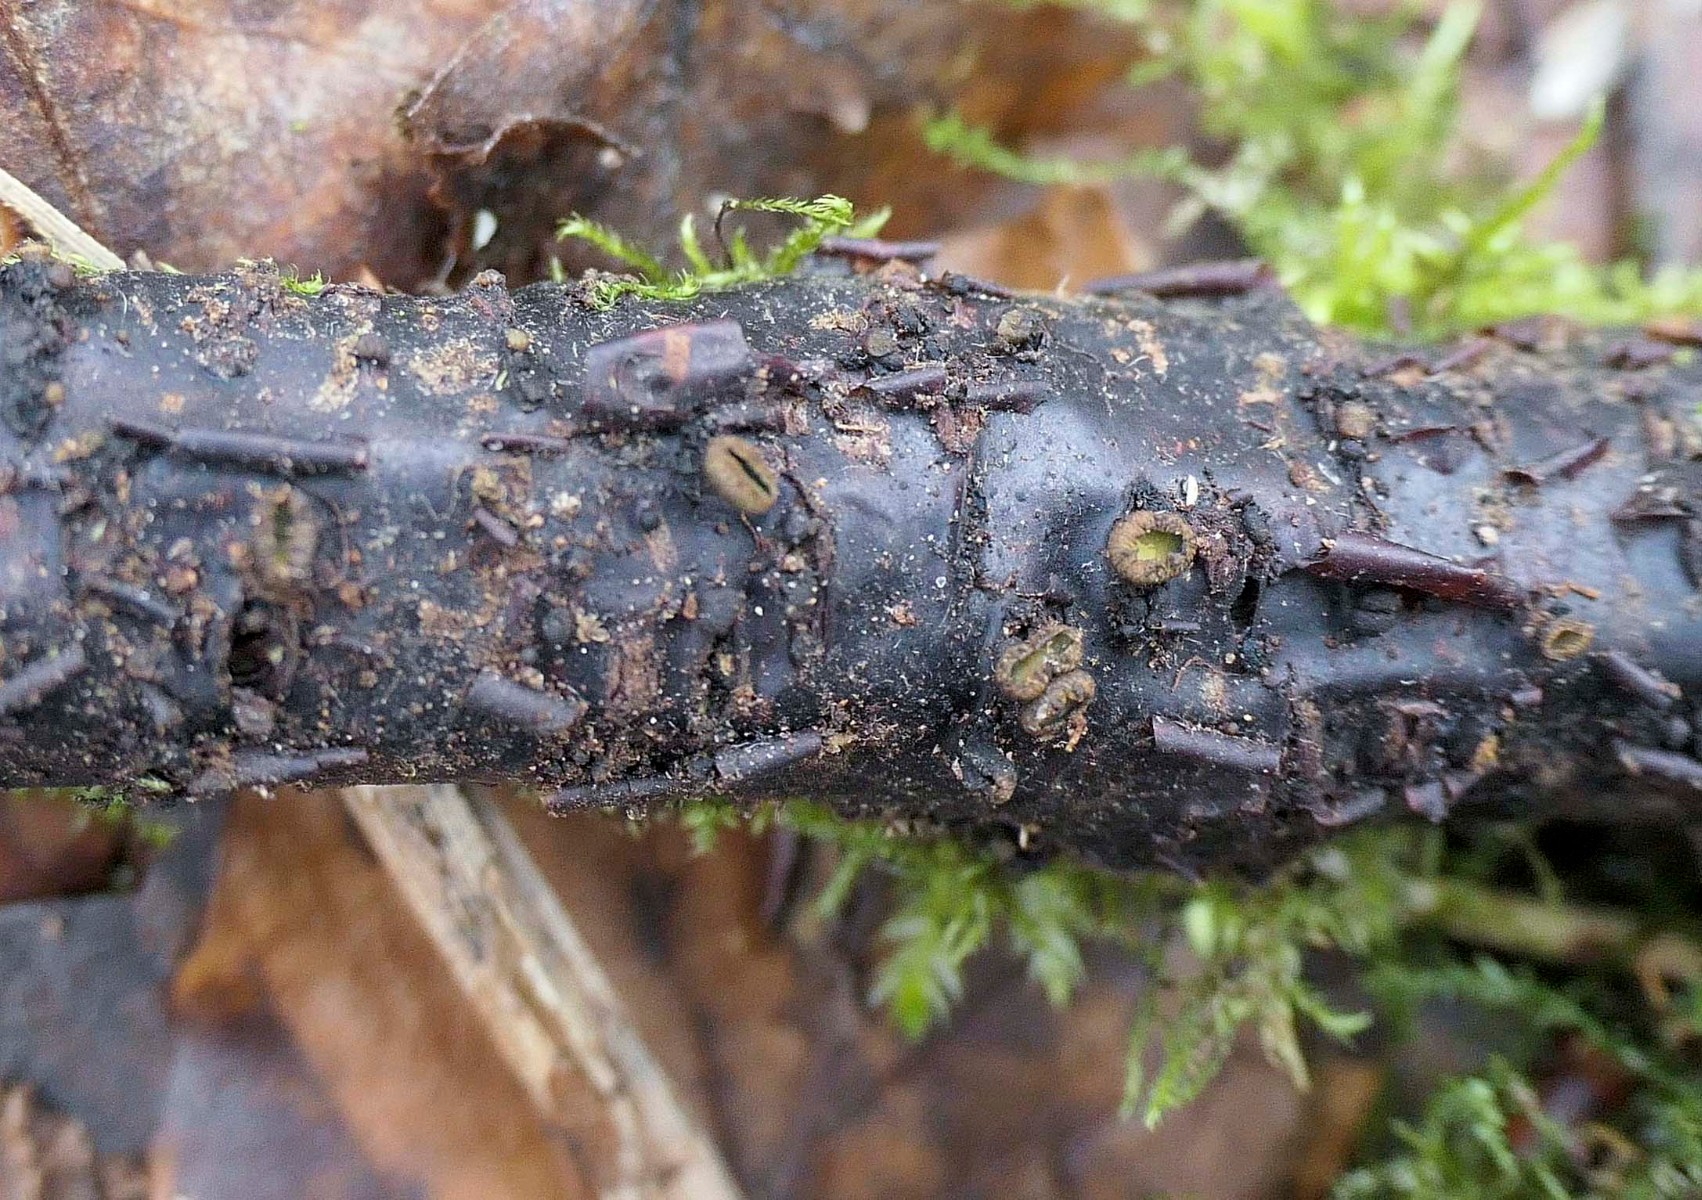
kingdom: Fungi
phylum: Ascomycota
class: Leotiomycetes
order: Helotiales
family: Godroniaceae
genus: Godronia
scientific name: Godronia ribis
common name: ribs-urneskive
